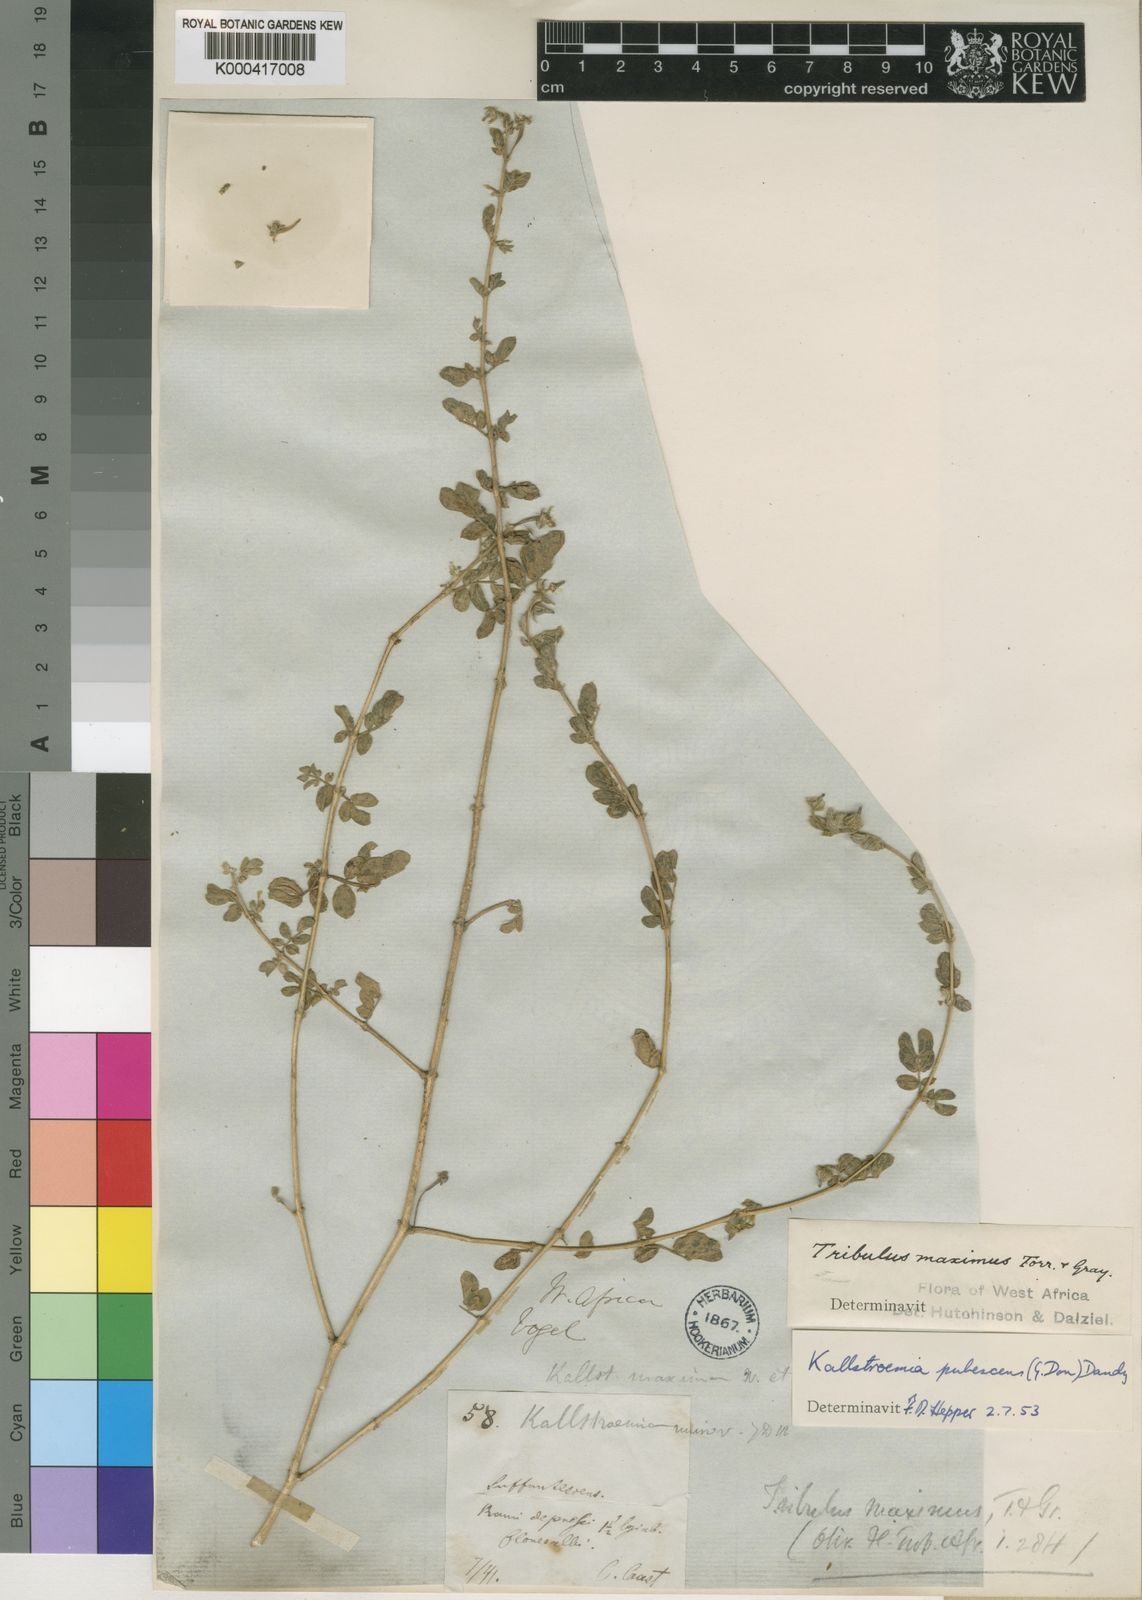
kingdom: Plantae
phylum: Tracheophyta
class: Magnoliopsida
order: Zygophyllales
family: Zygophyllaceae
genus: Kallstroemia
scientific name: Kallstroemia pubescens
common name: Caribbean caltrop
